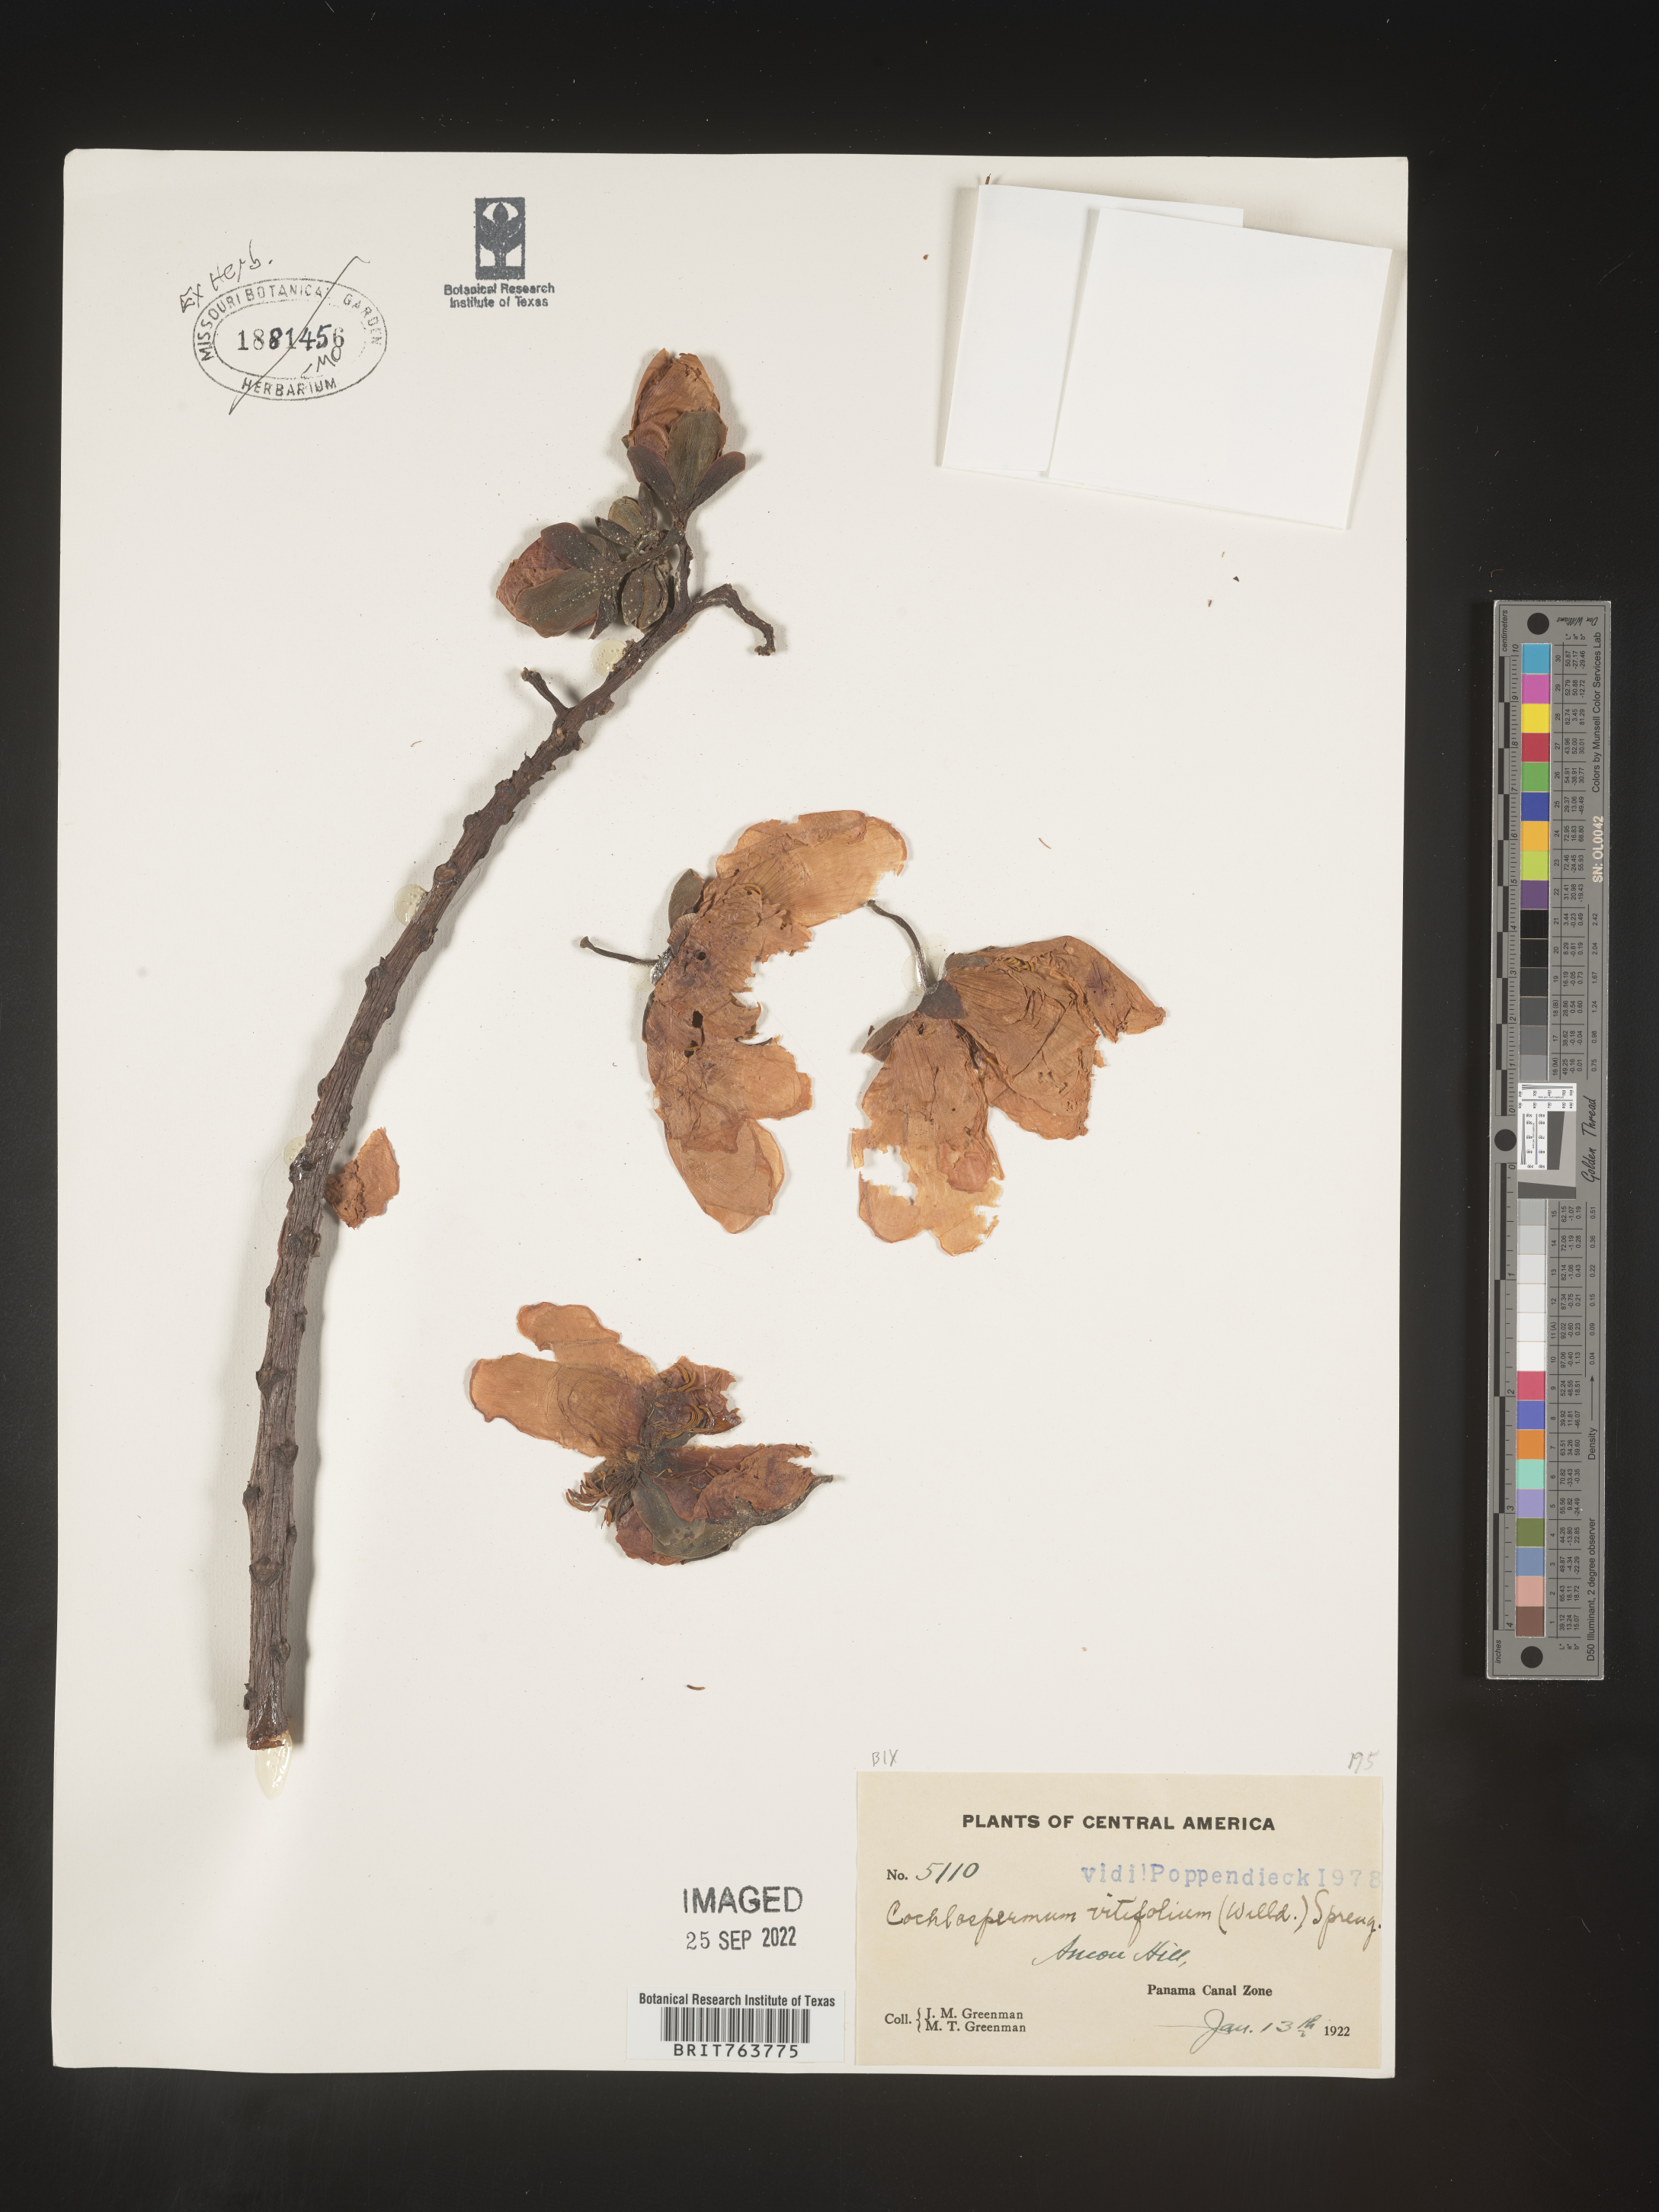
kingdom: Plantae
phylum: Tracheophyta
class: Magnoliopsida
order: Malvales
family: Cochlospermaceae
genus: Cochlospermum
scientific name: Cochlospermum
